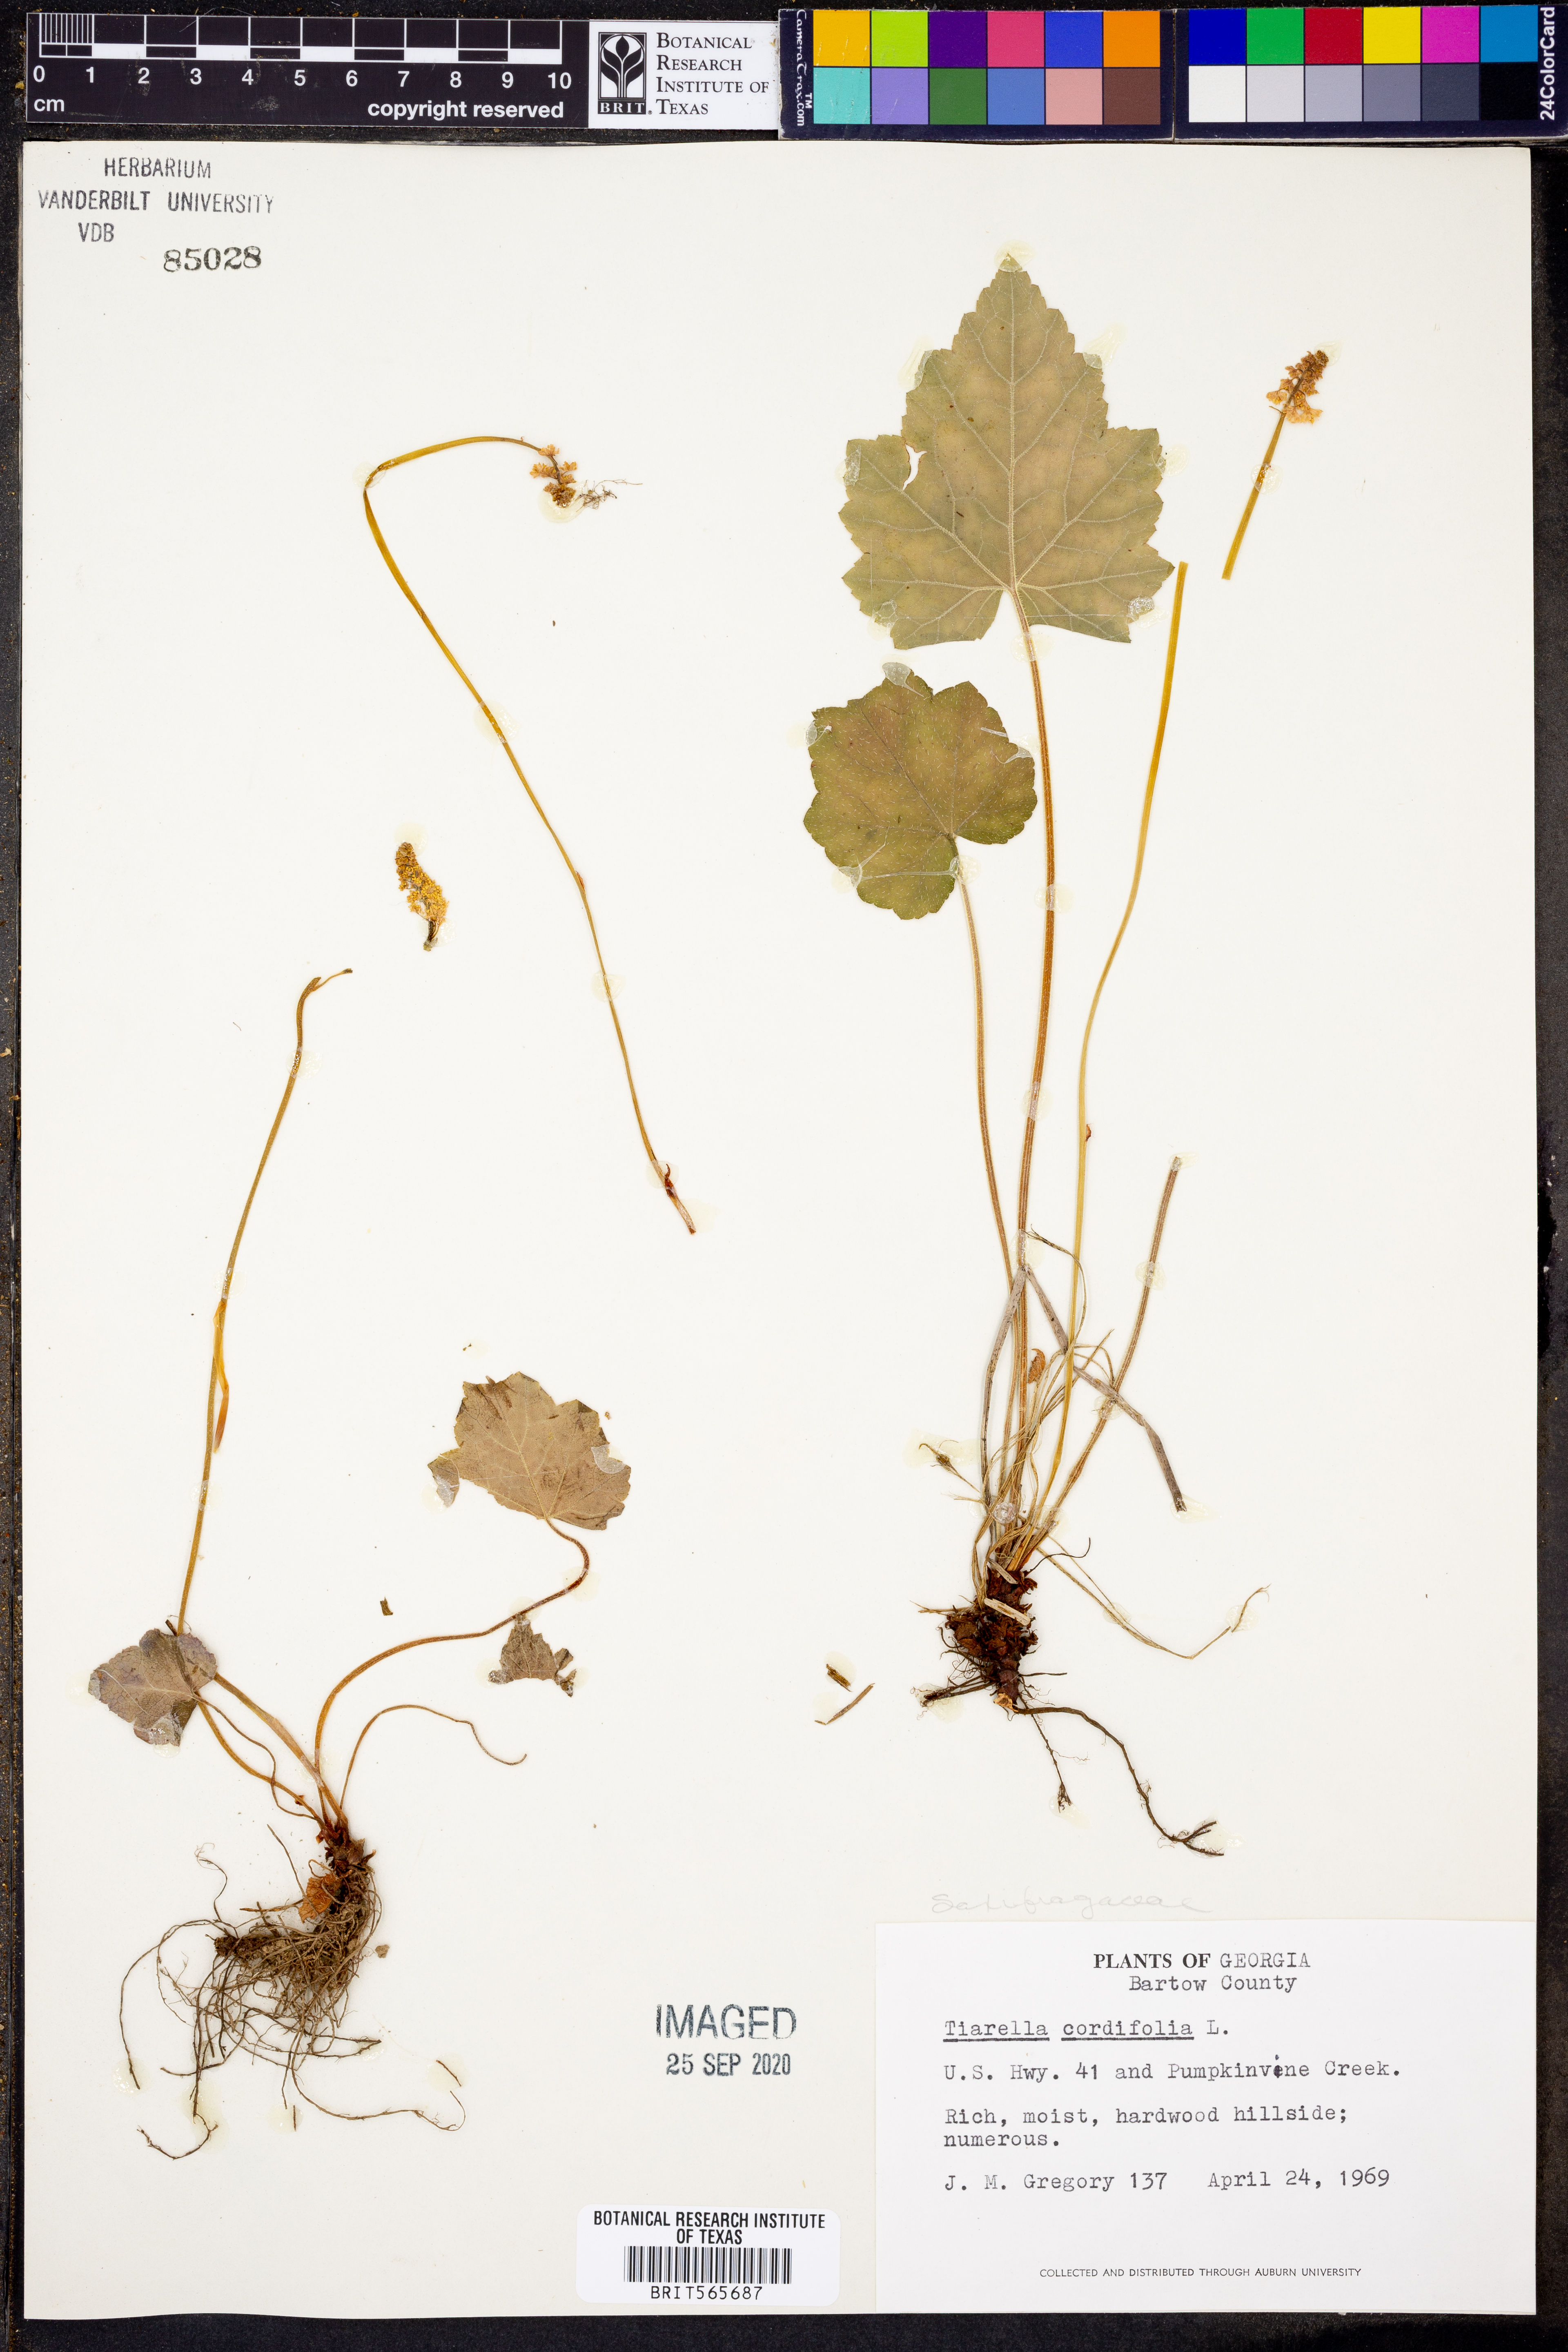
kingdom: Plantae
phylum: Tracheophyta
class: Magnoliopsida
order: Saxifragales
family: Saxifragaceae
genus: Tiarella
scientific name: Tiarella cordifolia
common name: Foamflower
